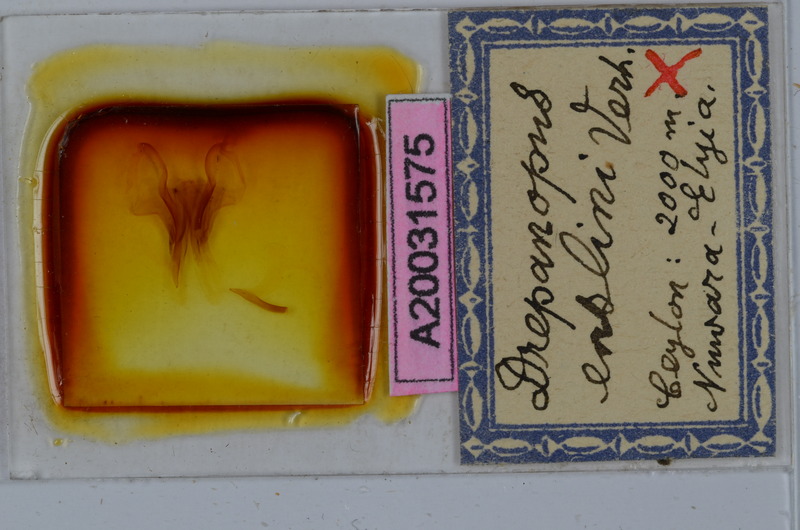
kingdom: Animalia
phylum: Arthropoda
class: Diplopoda
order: Spirostreptida
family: Harpagophoridae
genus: Ktenostreptus
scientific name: Ktenostreptus centrurus
